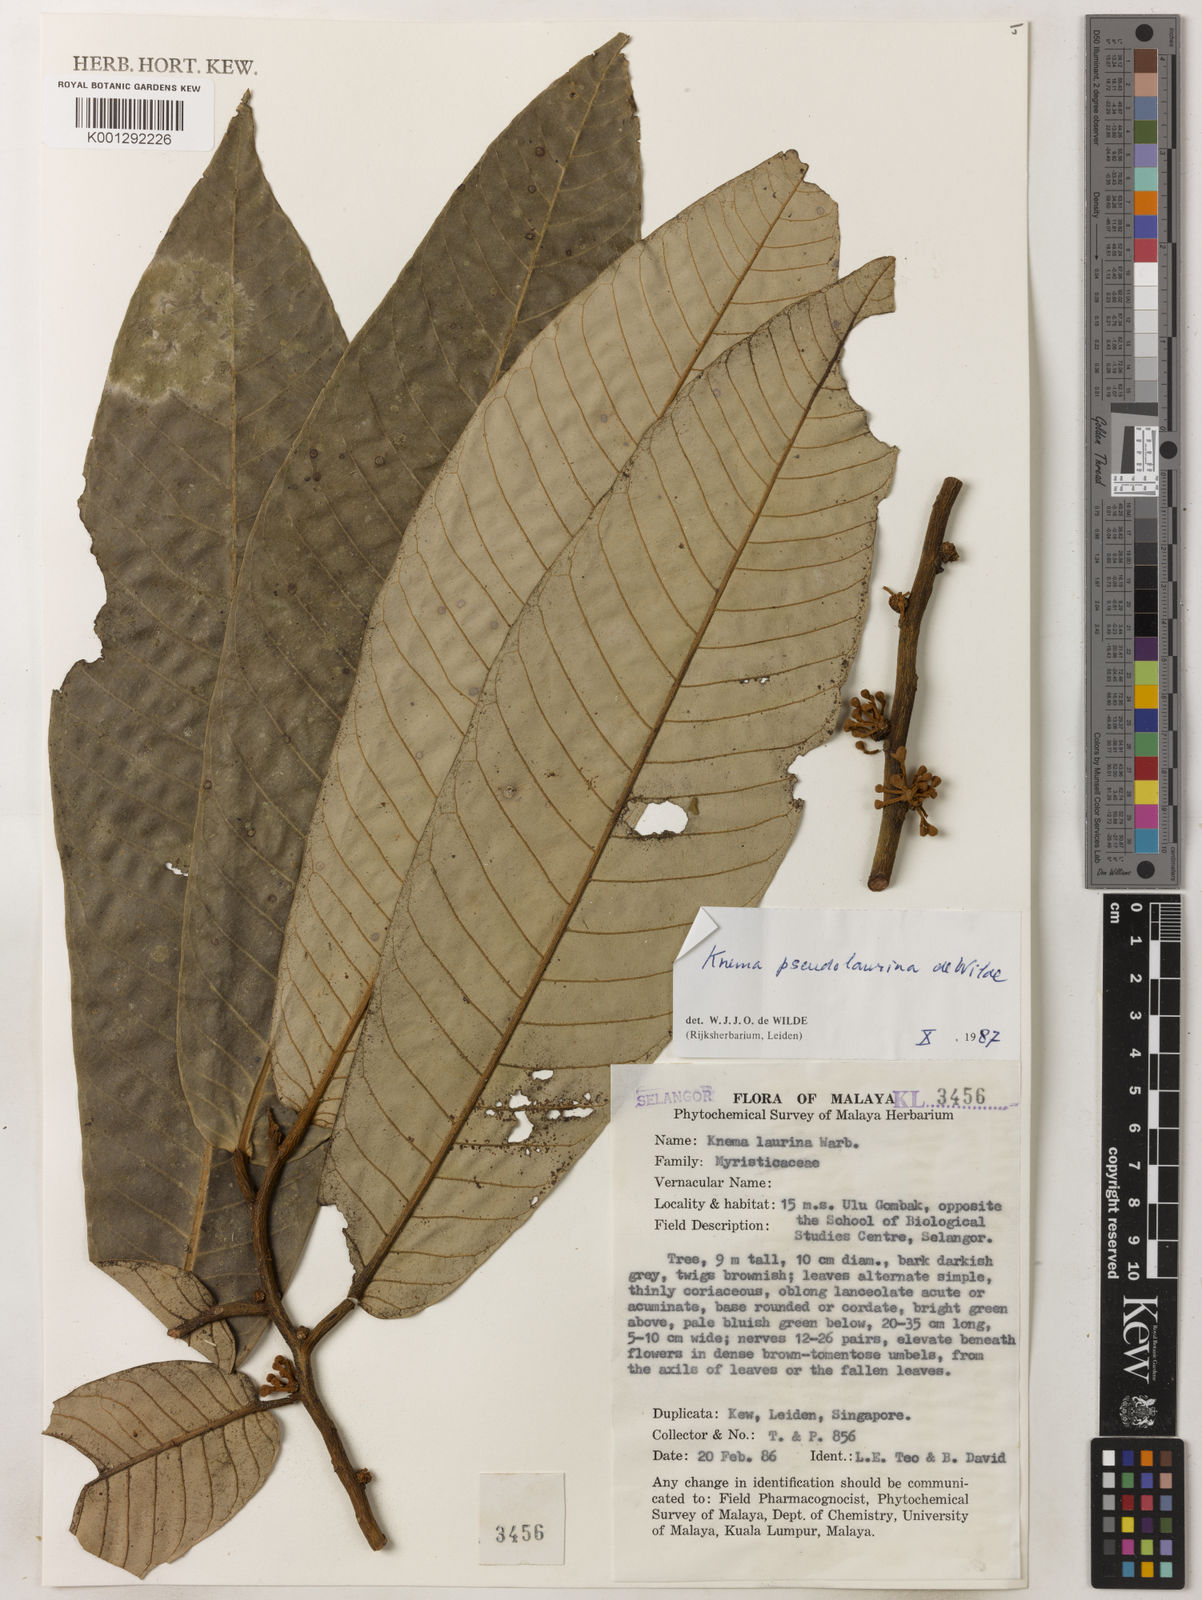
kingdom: Plantae
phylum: Tracheophyta
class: Magnoliopsida
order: Magnoliales
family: Myristicaceae
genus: Knema
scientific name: Knema pseudolaurina
